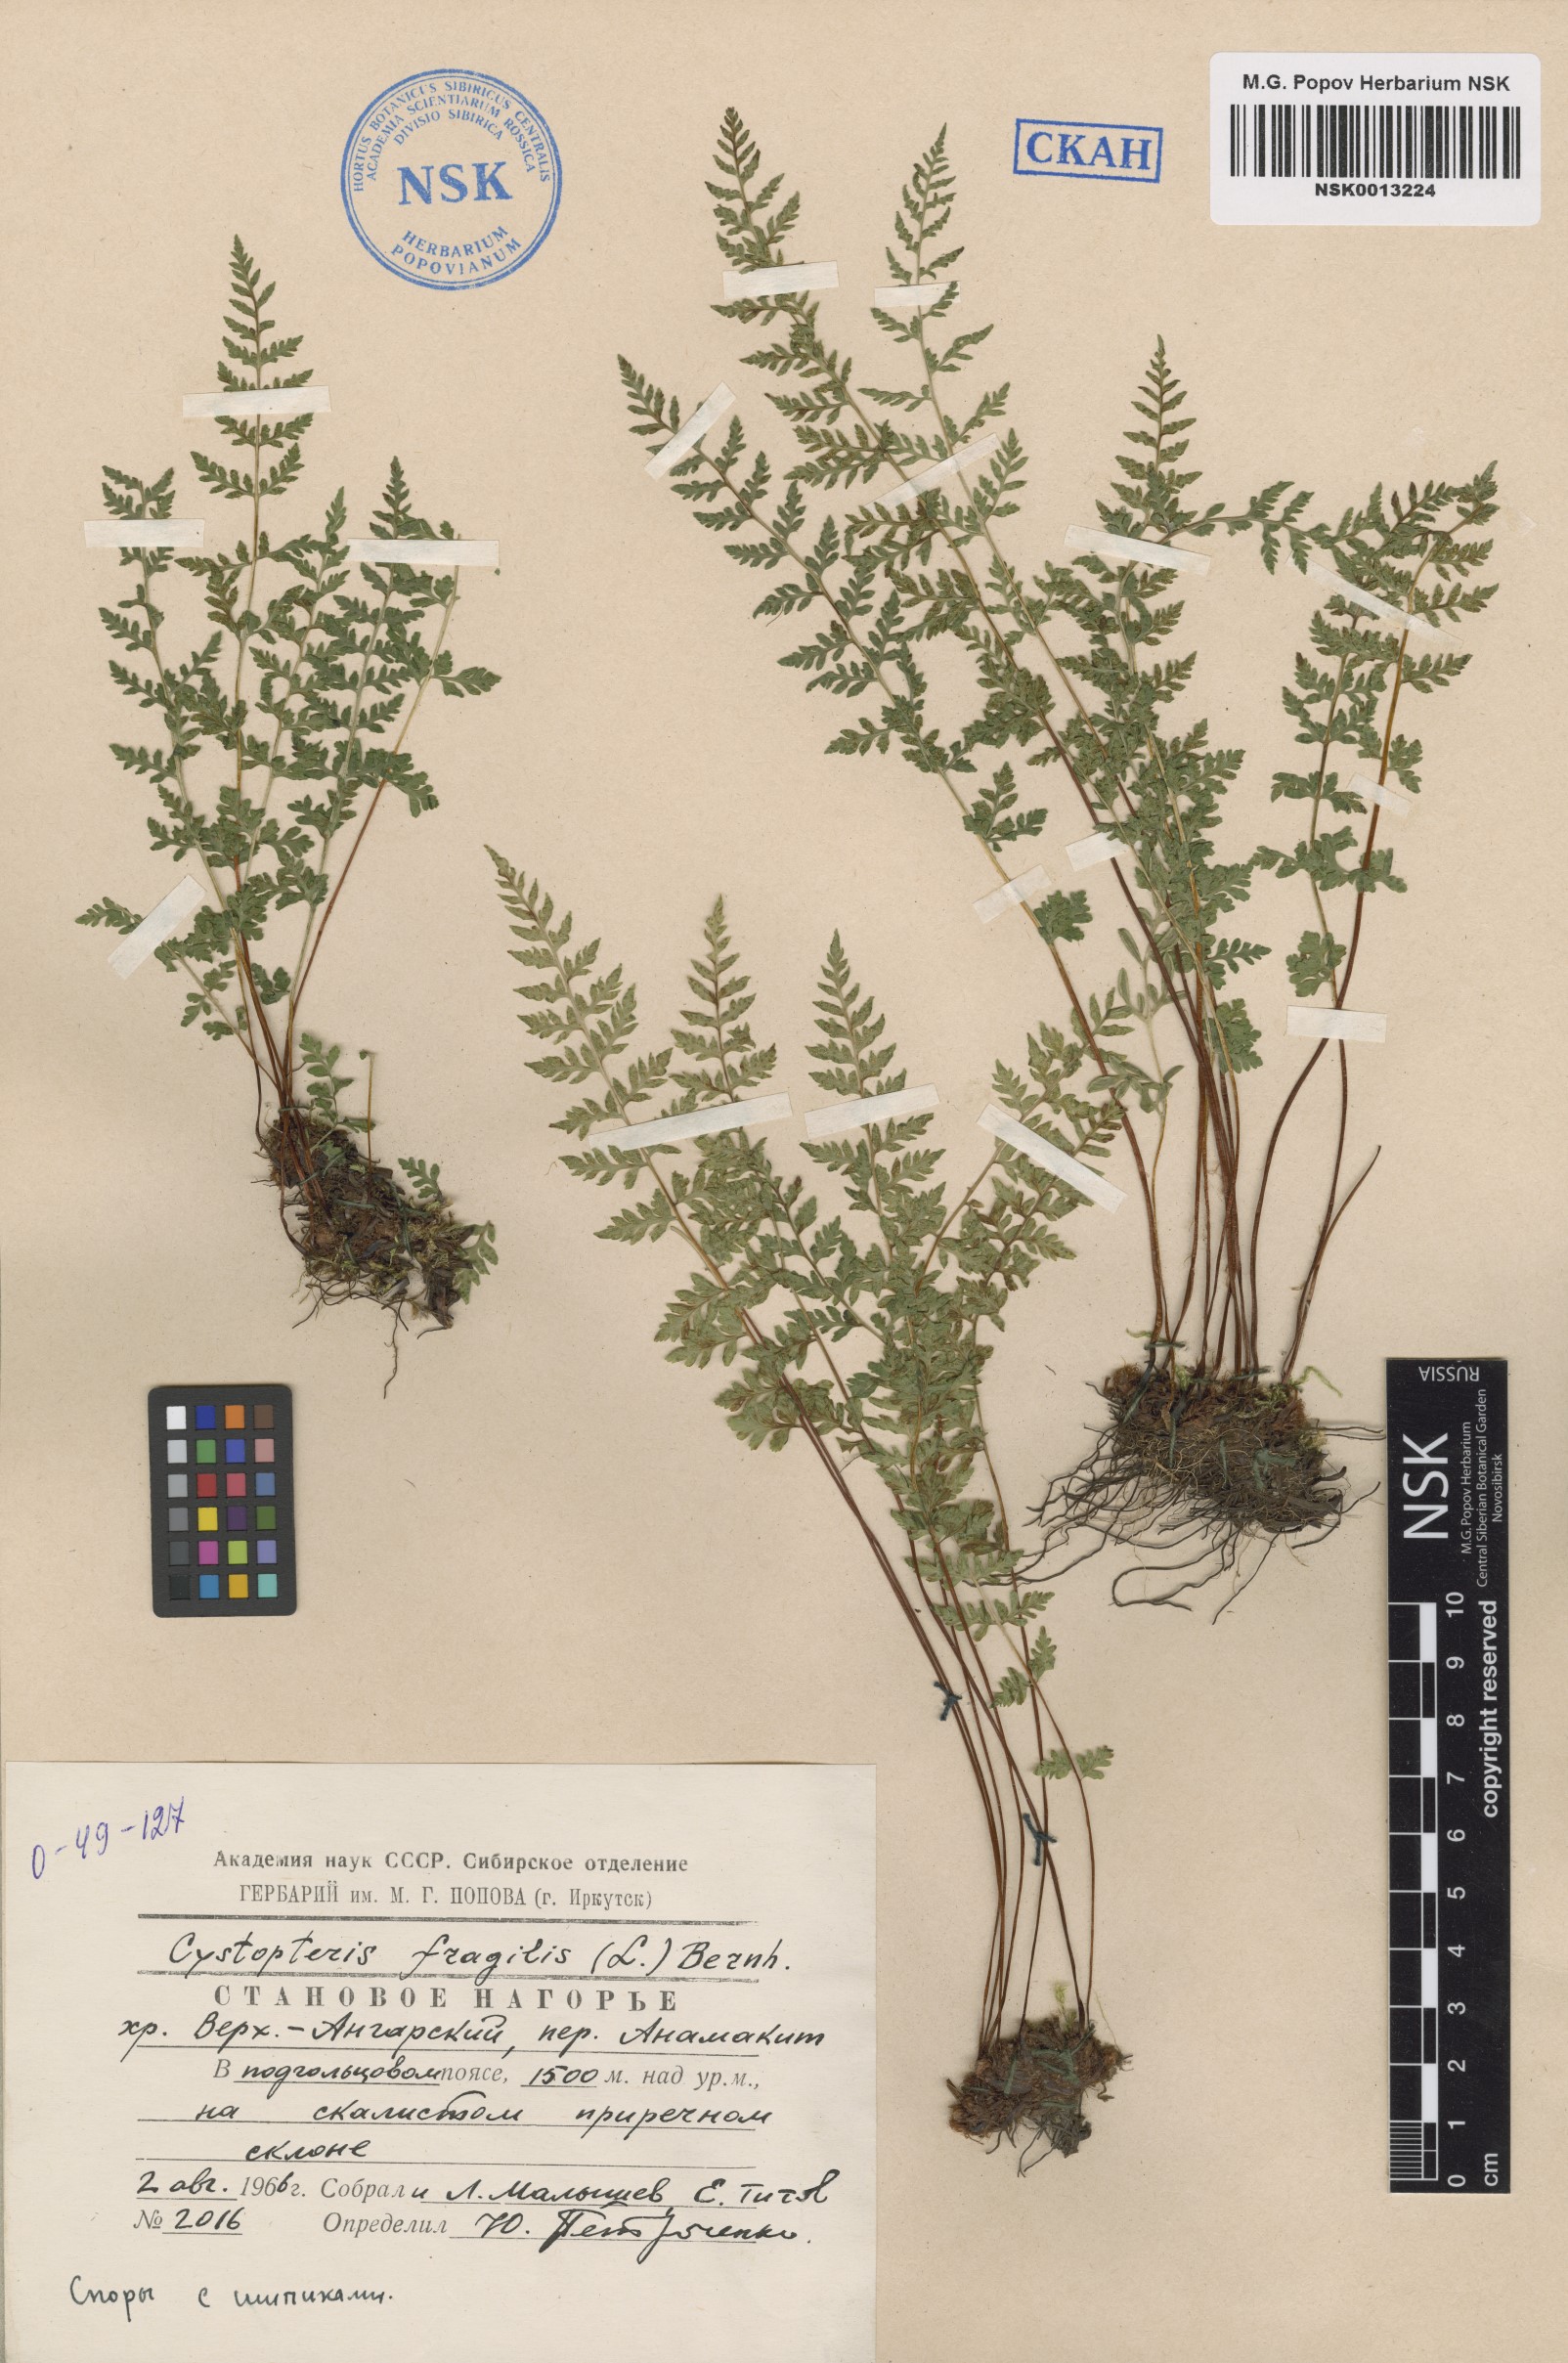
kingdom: Plantae
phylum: Tracheophyta
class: Polypodiopsida
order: Polypodiales
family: Cystopteridaceae
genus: Cystopteris
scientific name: Cystopteris fragilis
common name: Brittle bladder fern
